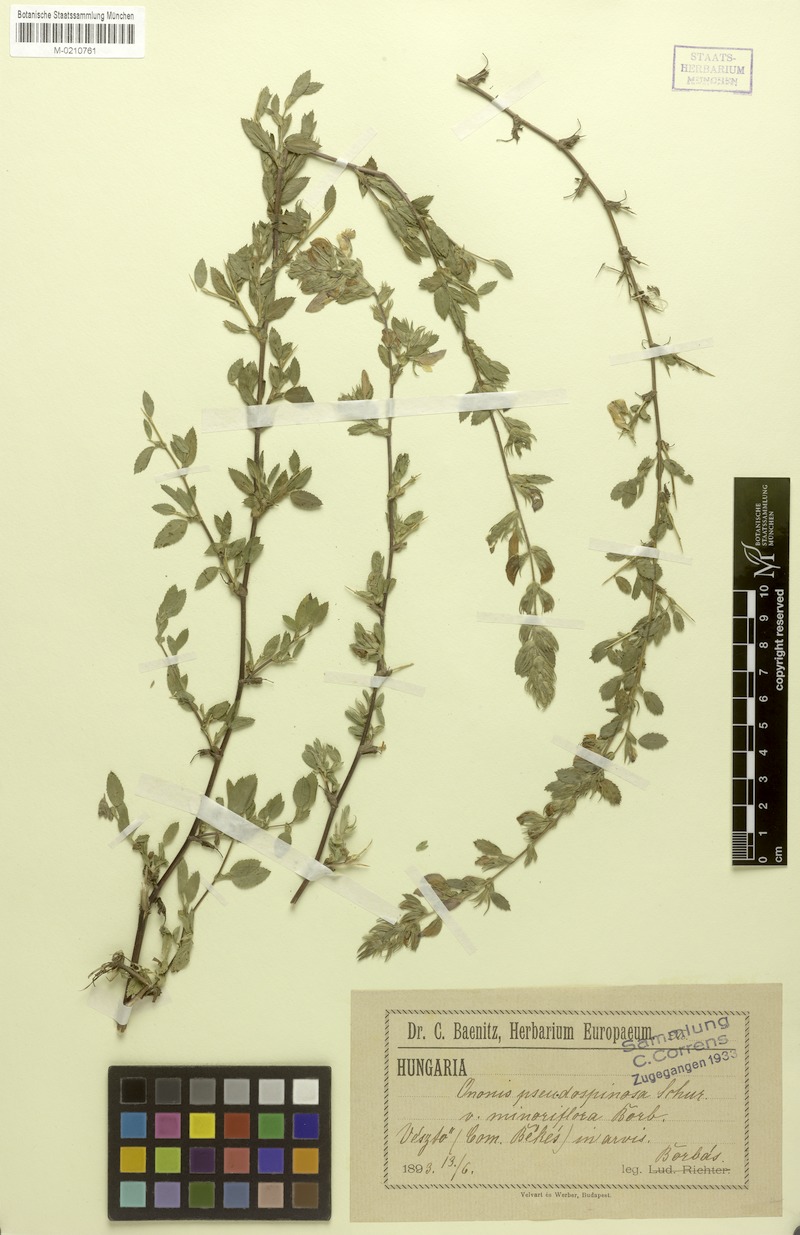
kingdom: Plantae
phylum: Tracheophyta
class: Magnoliopsida
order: Fabales
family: Fabaceae
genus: Ononis
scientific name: Ononis arvensis
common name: Field restharrow
